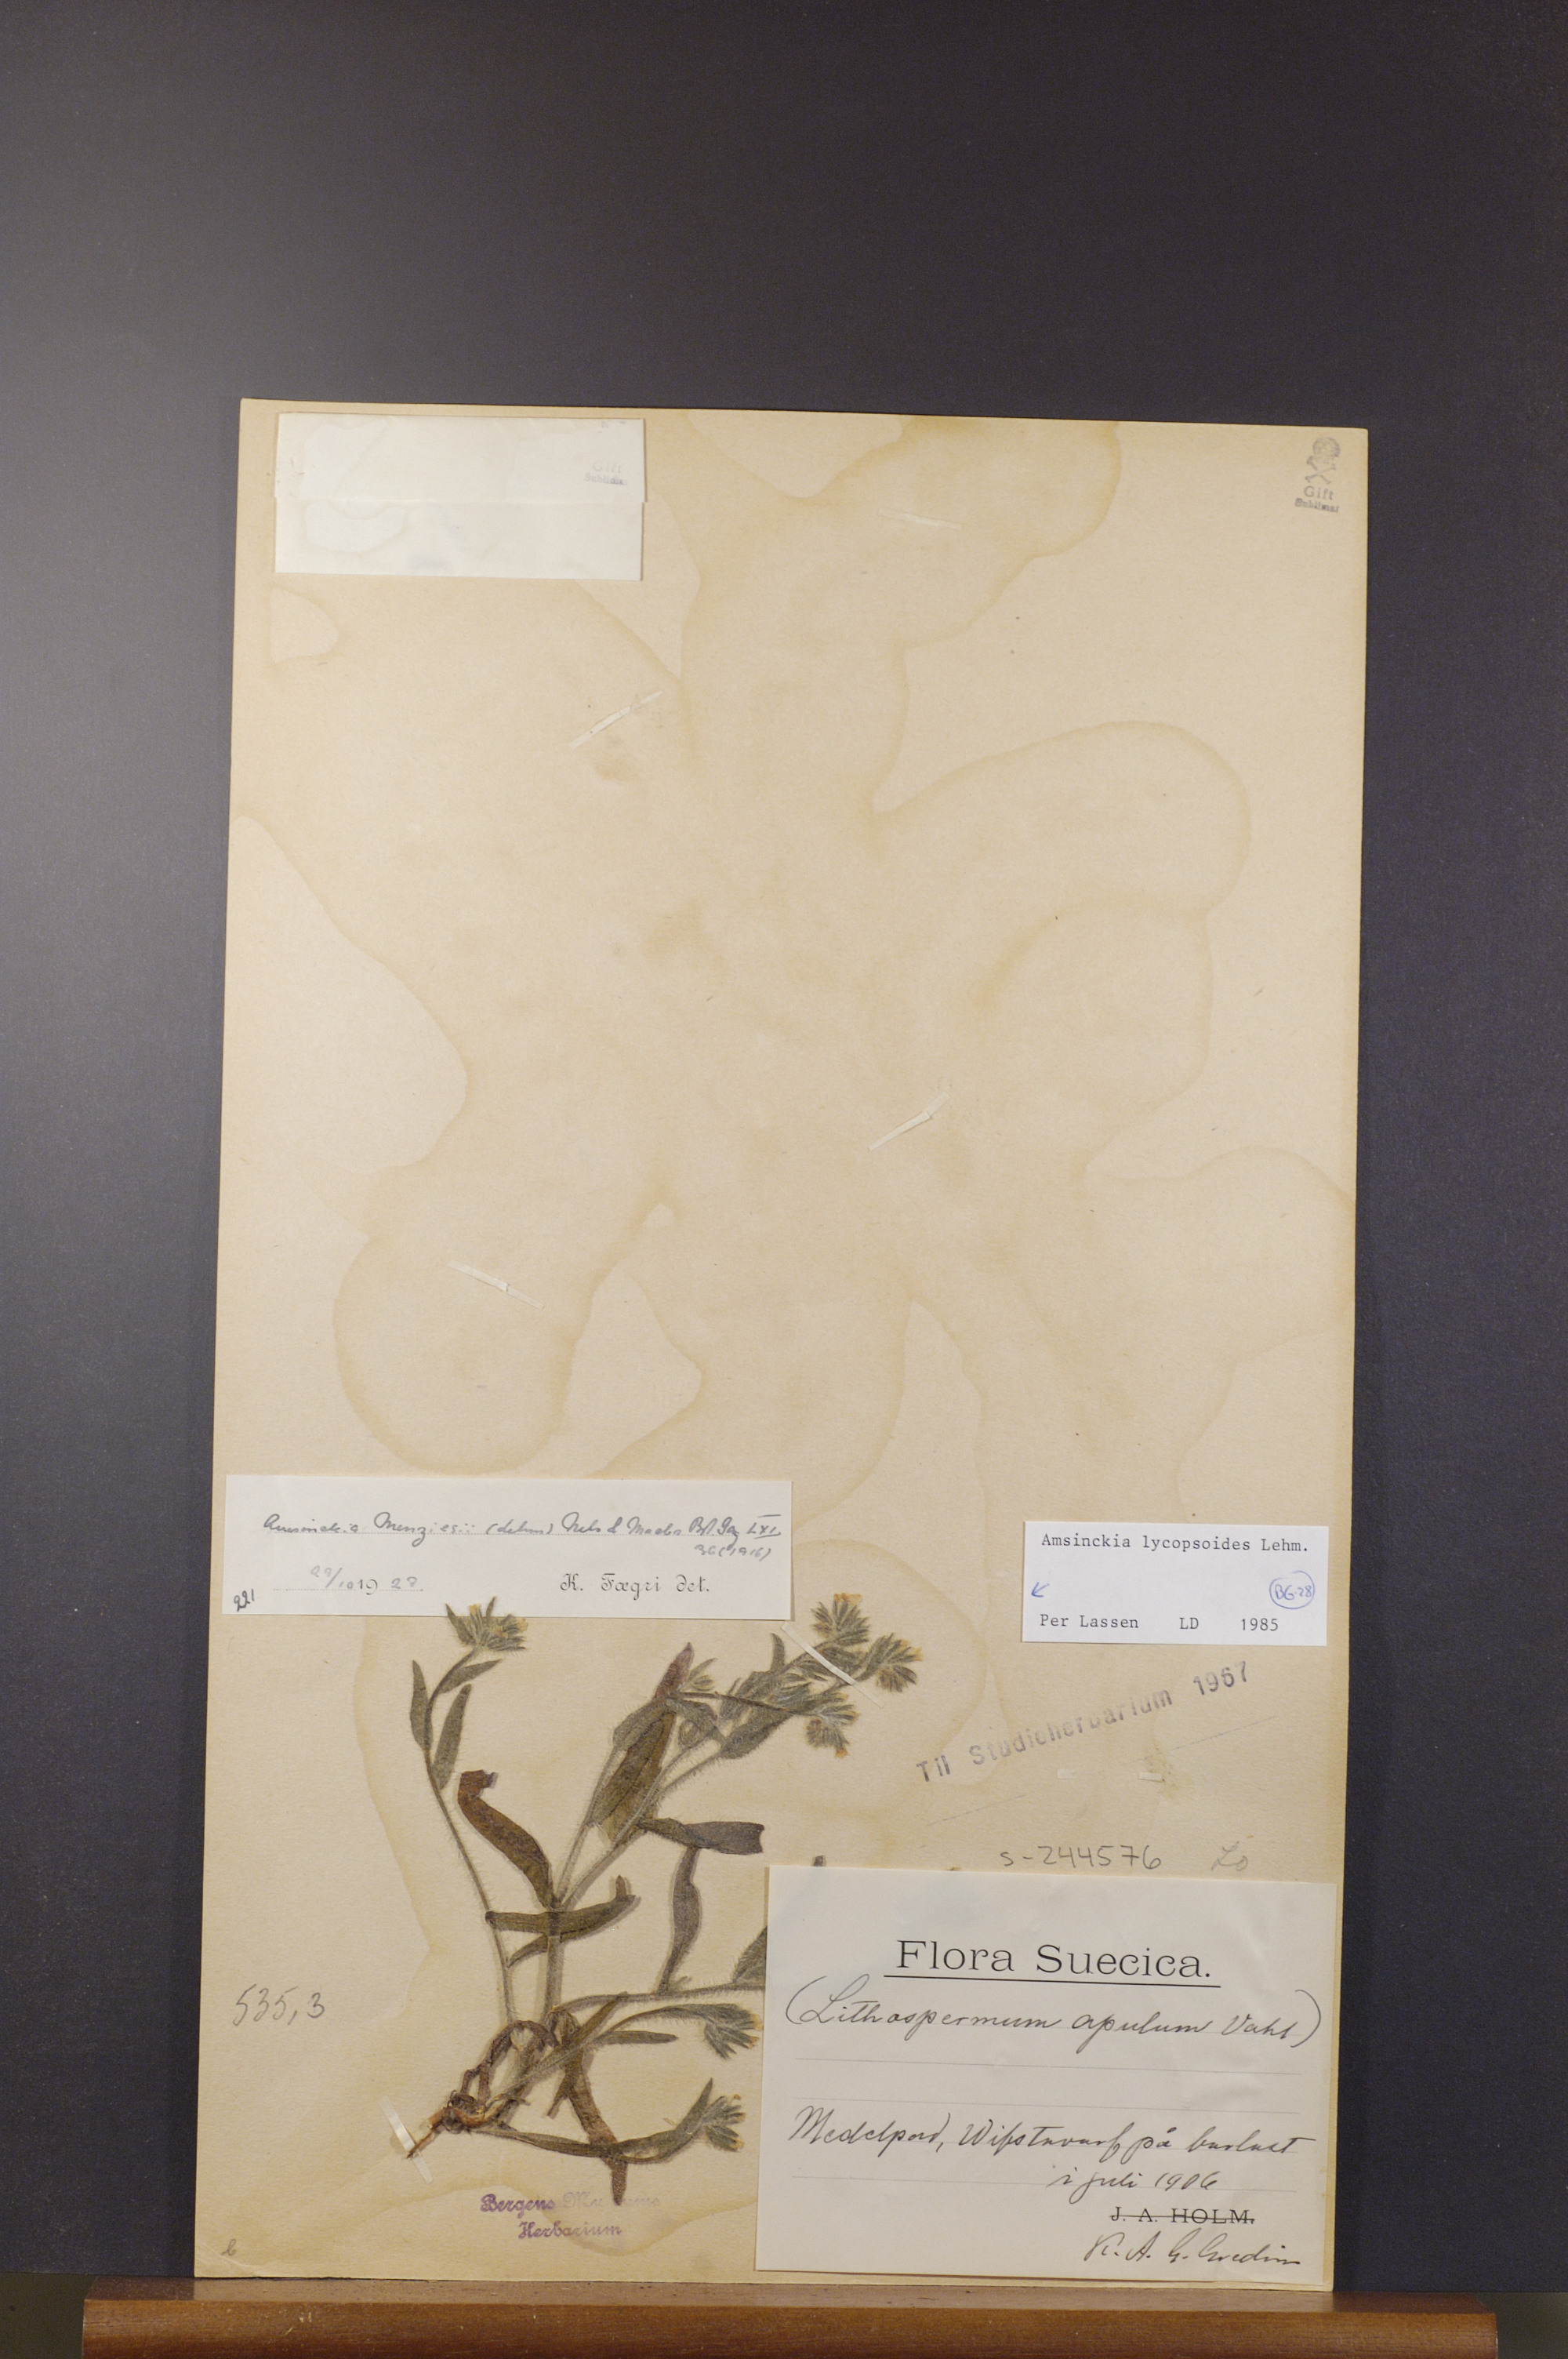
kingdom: Plantae
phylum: Tracheophyta
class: Magnoliopsida
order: Boraginales
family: Boraginaceae
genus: Amsinckia
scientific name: Amsinckia lycopsoides
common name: Tarweed fiddleneck
